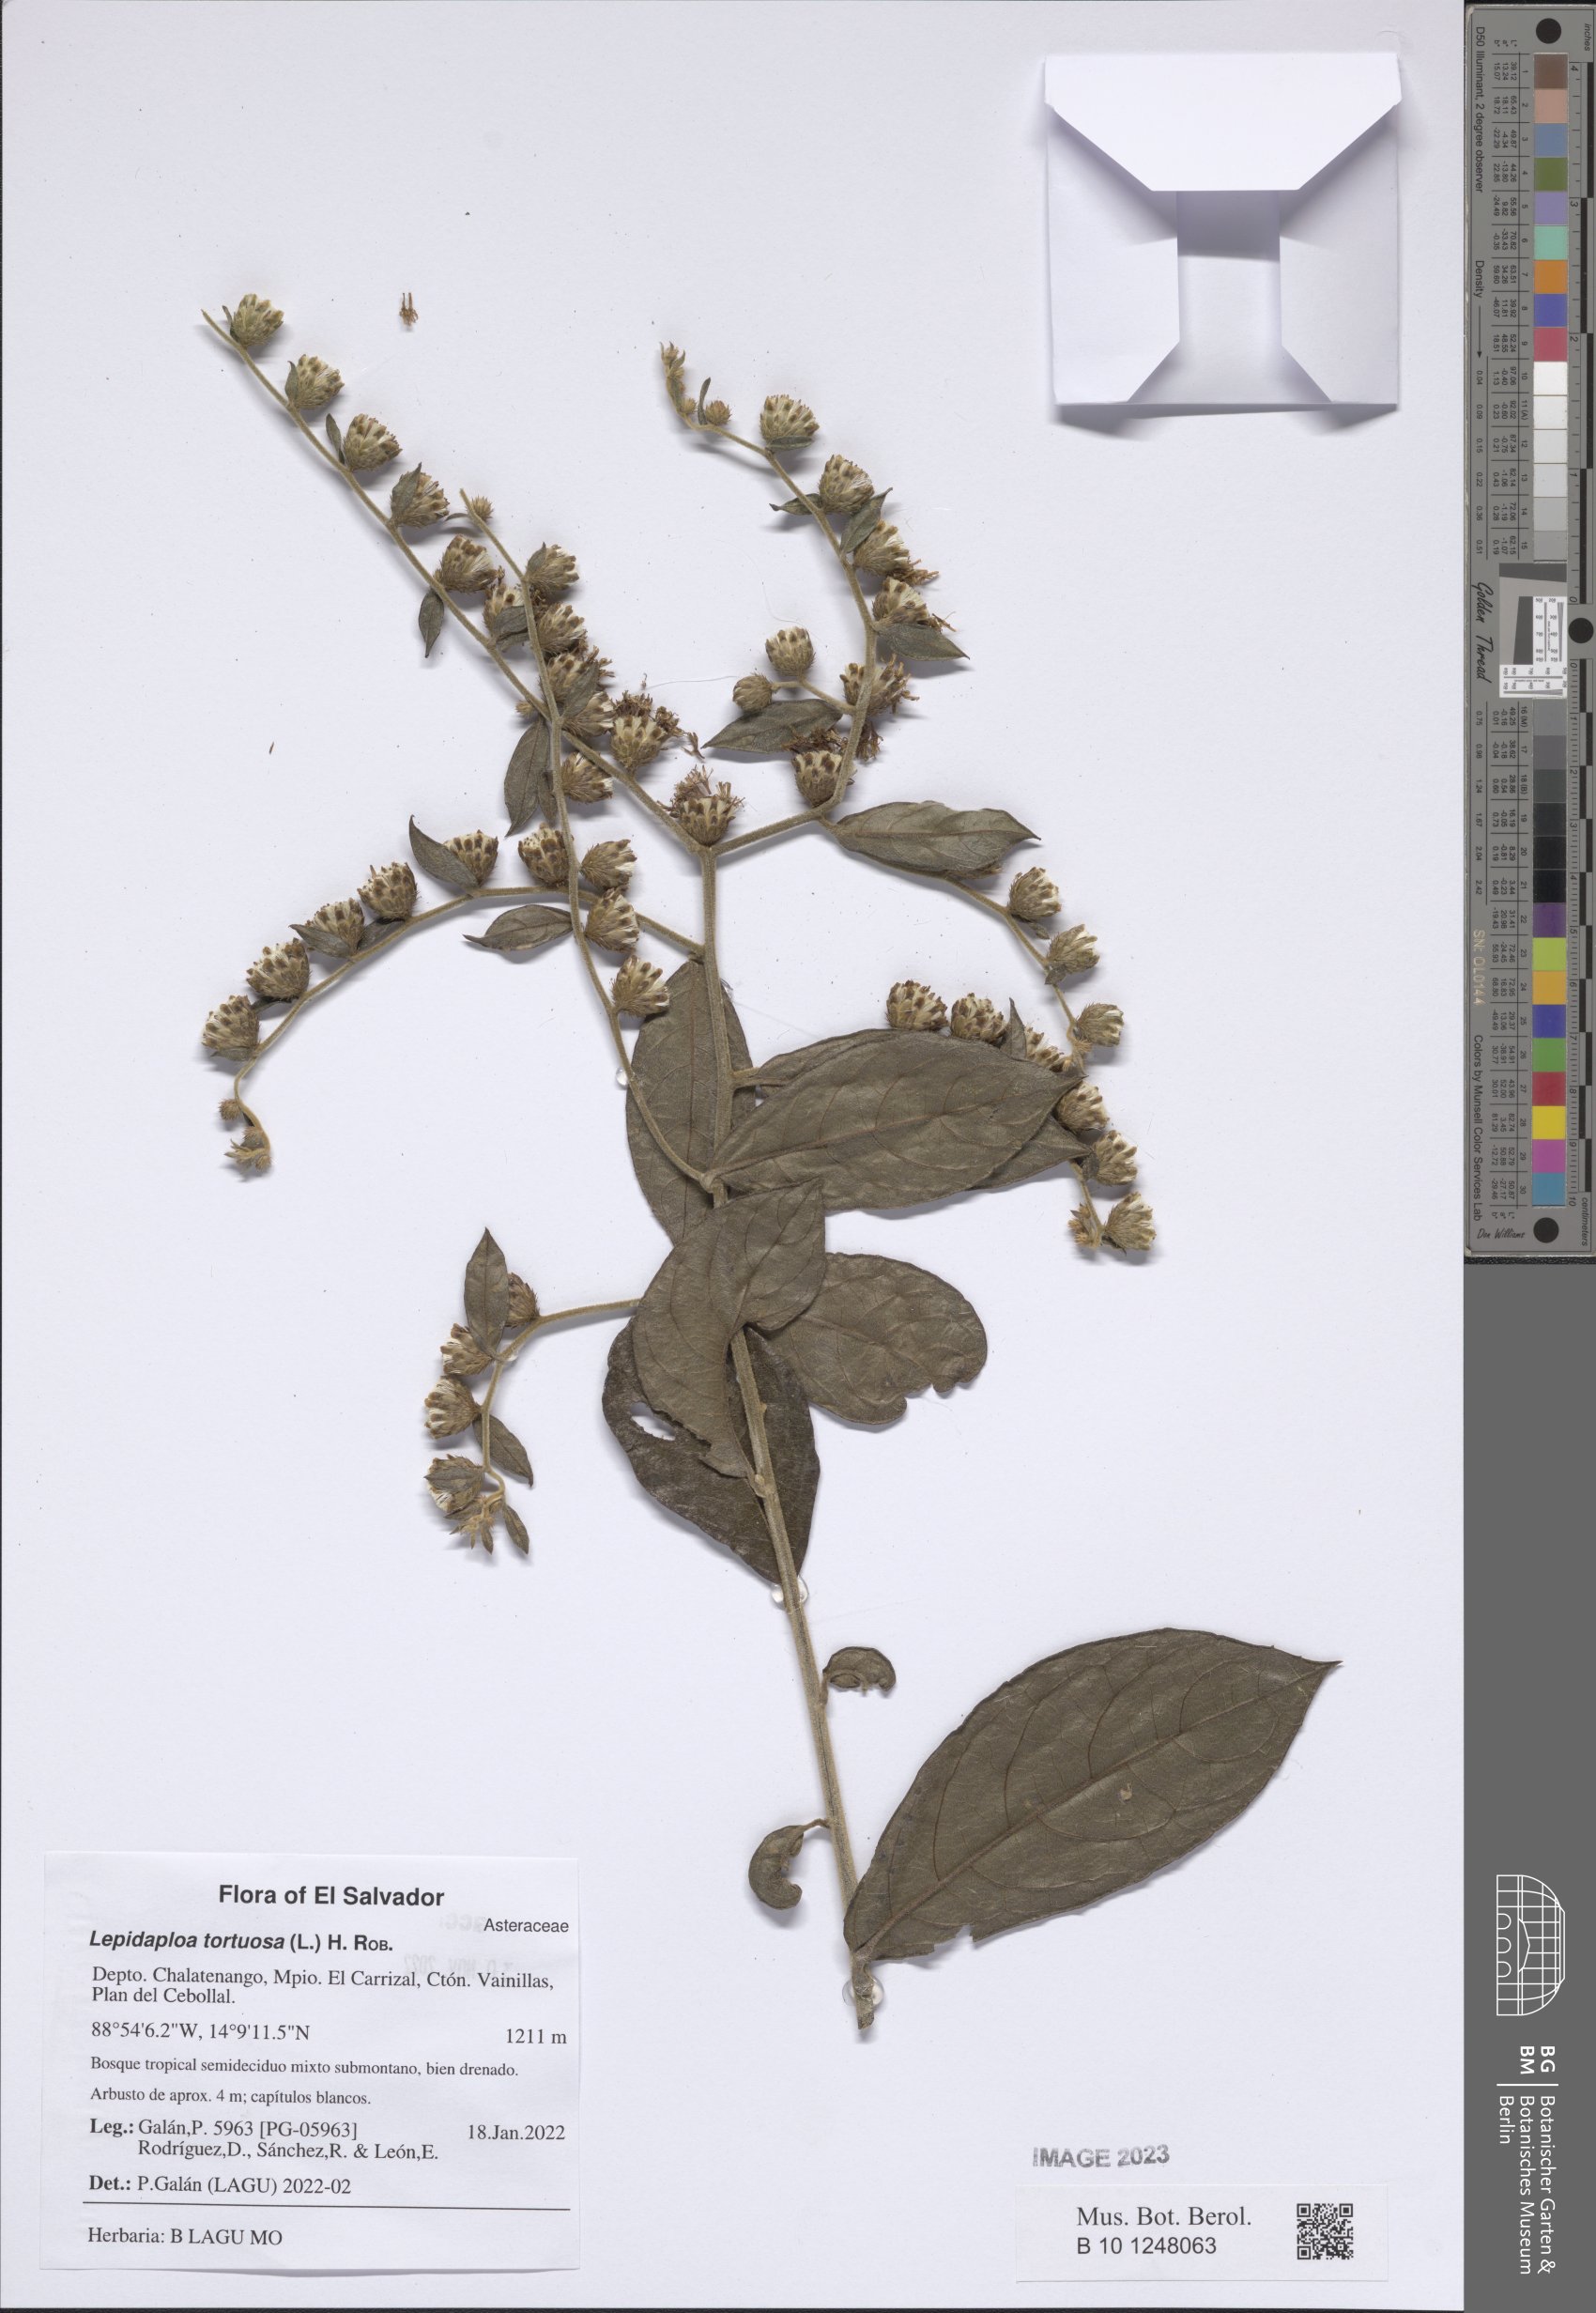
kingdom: Plantae
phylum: Tracheophyta
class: Magnoliopsida
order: Asterales
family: Asteraceae
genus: Lepidaploa
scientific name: Lepidaploa tortuosa
